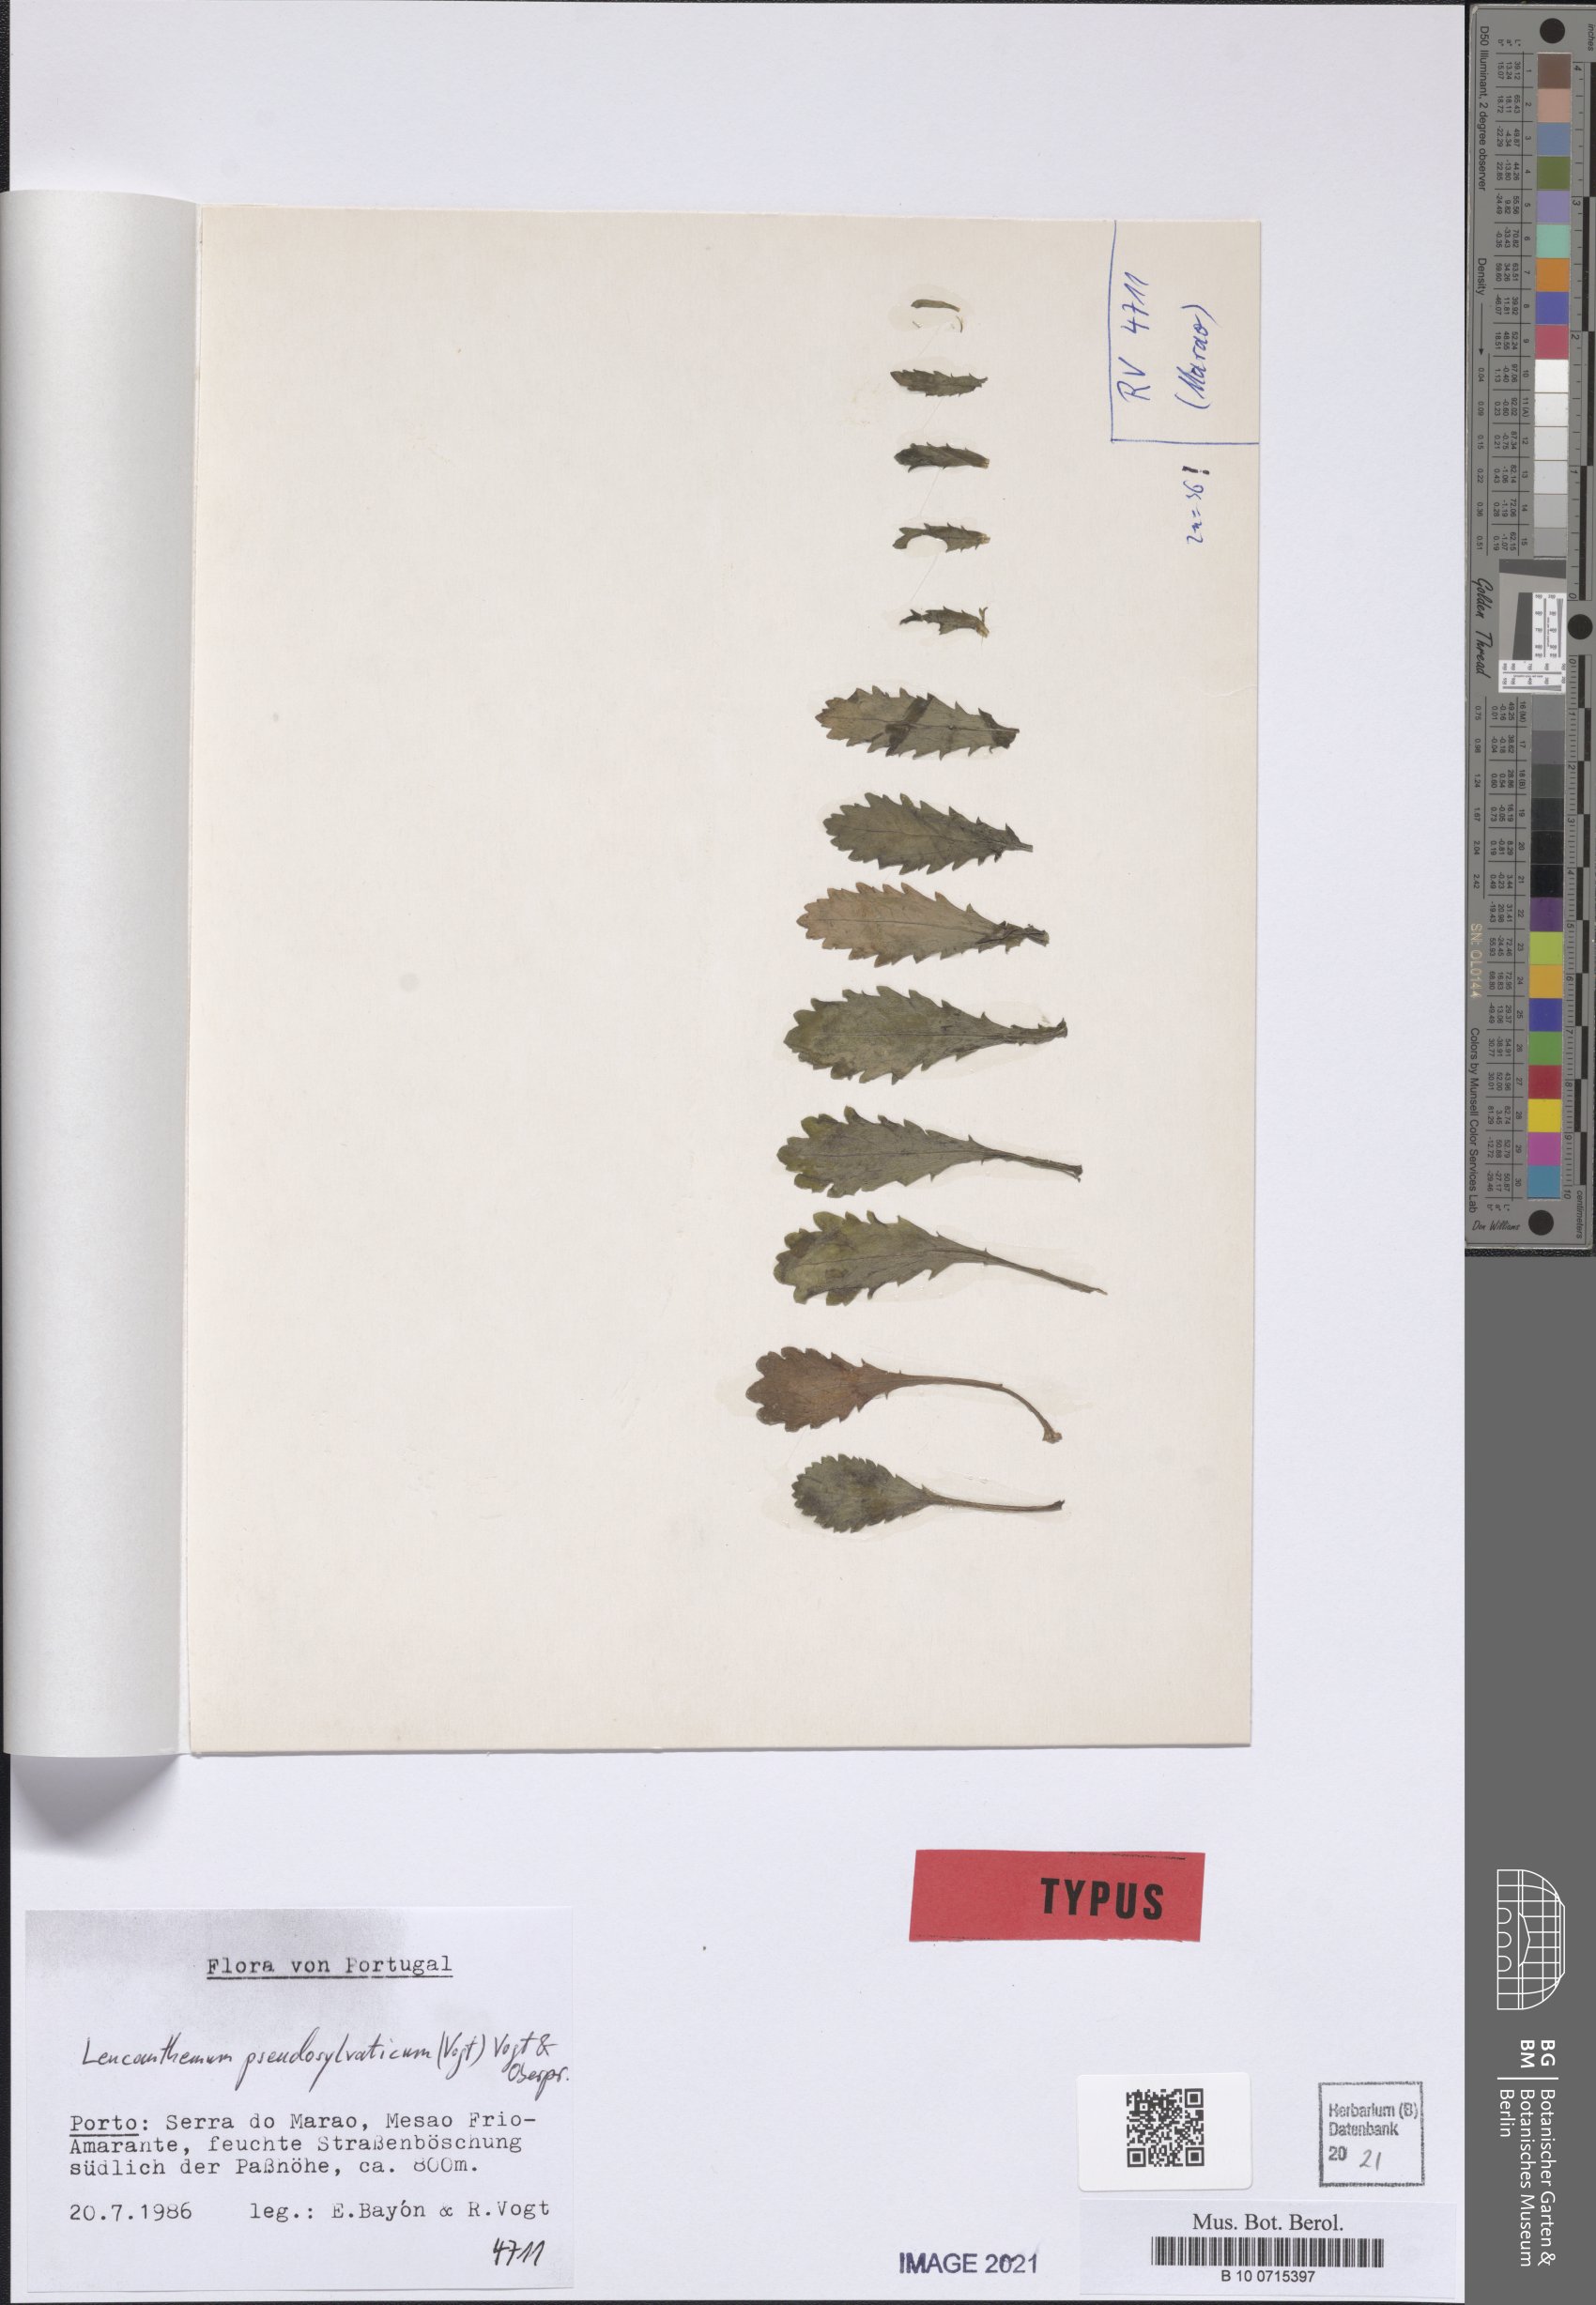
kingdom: Plantae
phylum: Tracheophyta
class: Magnoliopsida
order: Asterales
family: Asteraceae
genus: Leucanthemum
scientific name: Leucanthemum pseudosylvaticum
